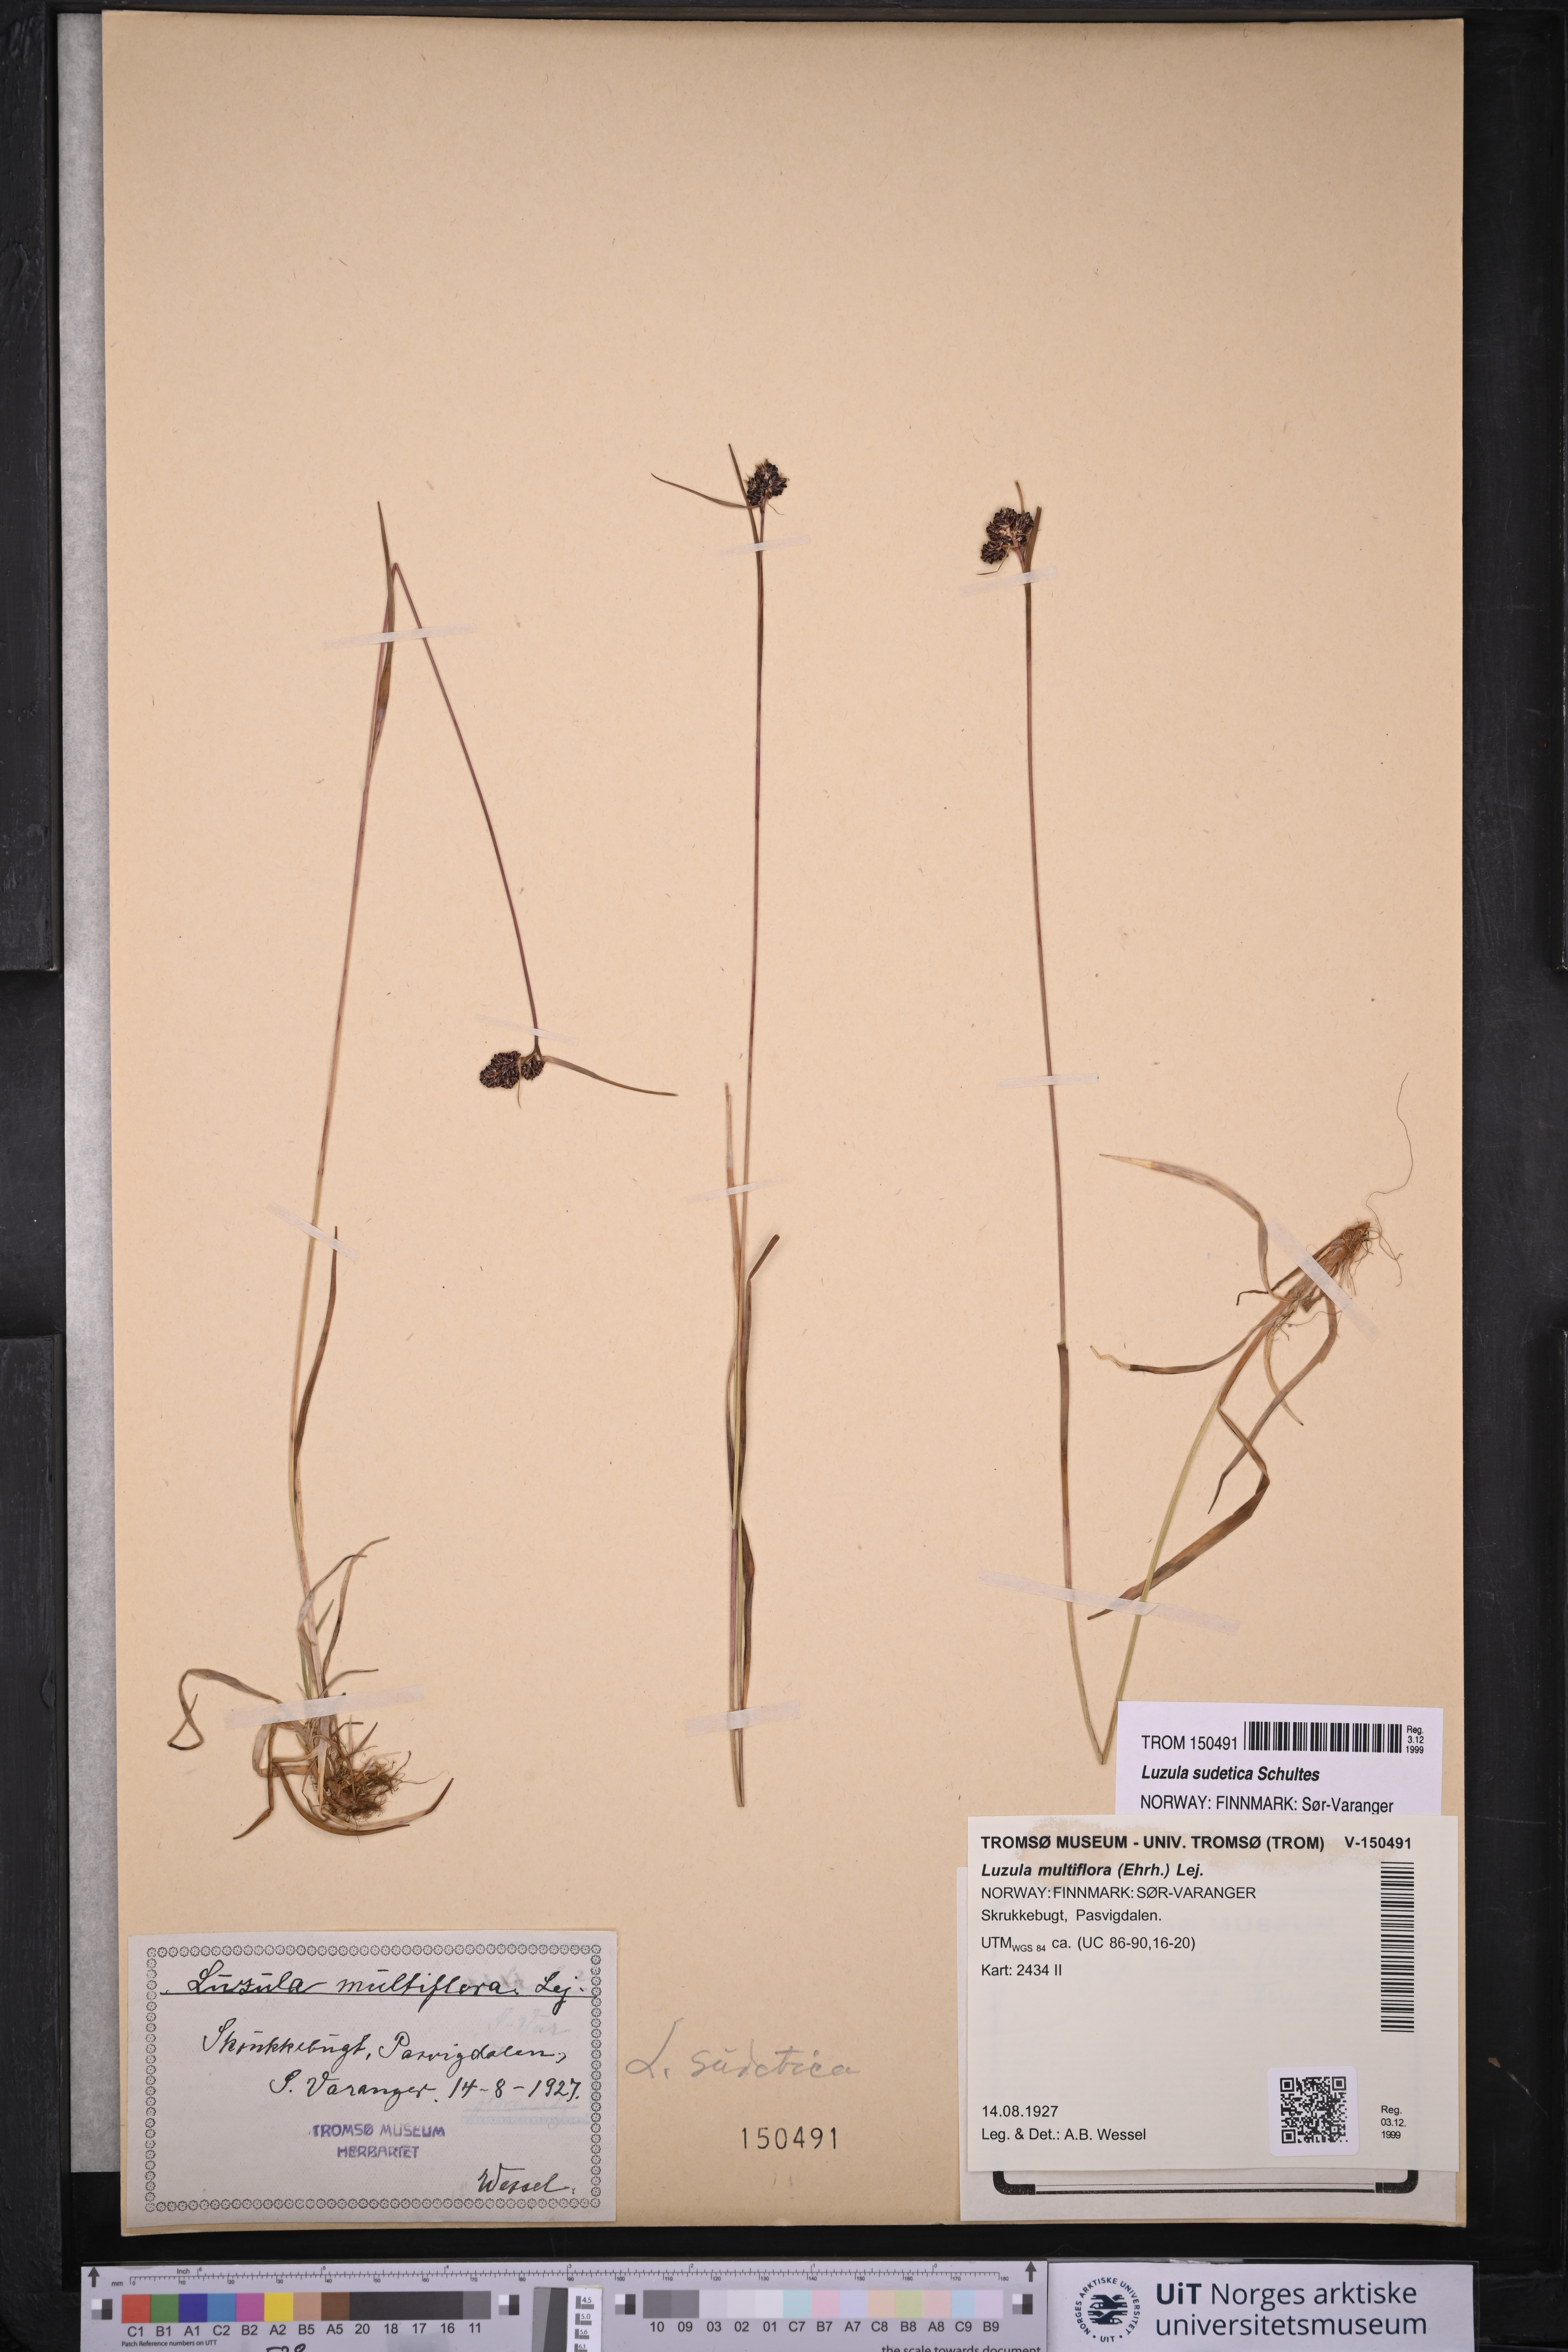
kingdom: Plantae
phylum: Tracheophyta
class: Liliopsida
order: Poales
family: Juncaceae
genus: Luzula
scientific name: Luzula sudetica
